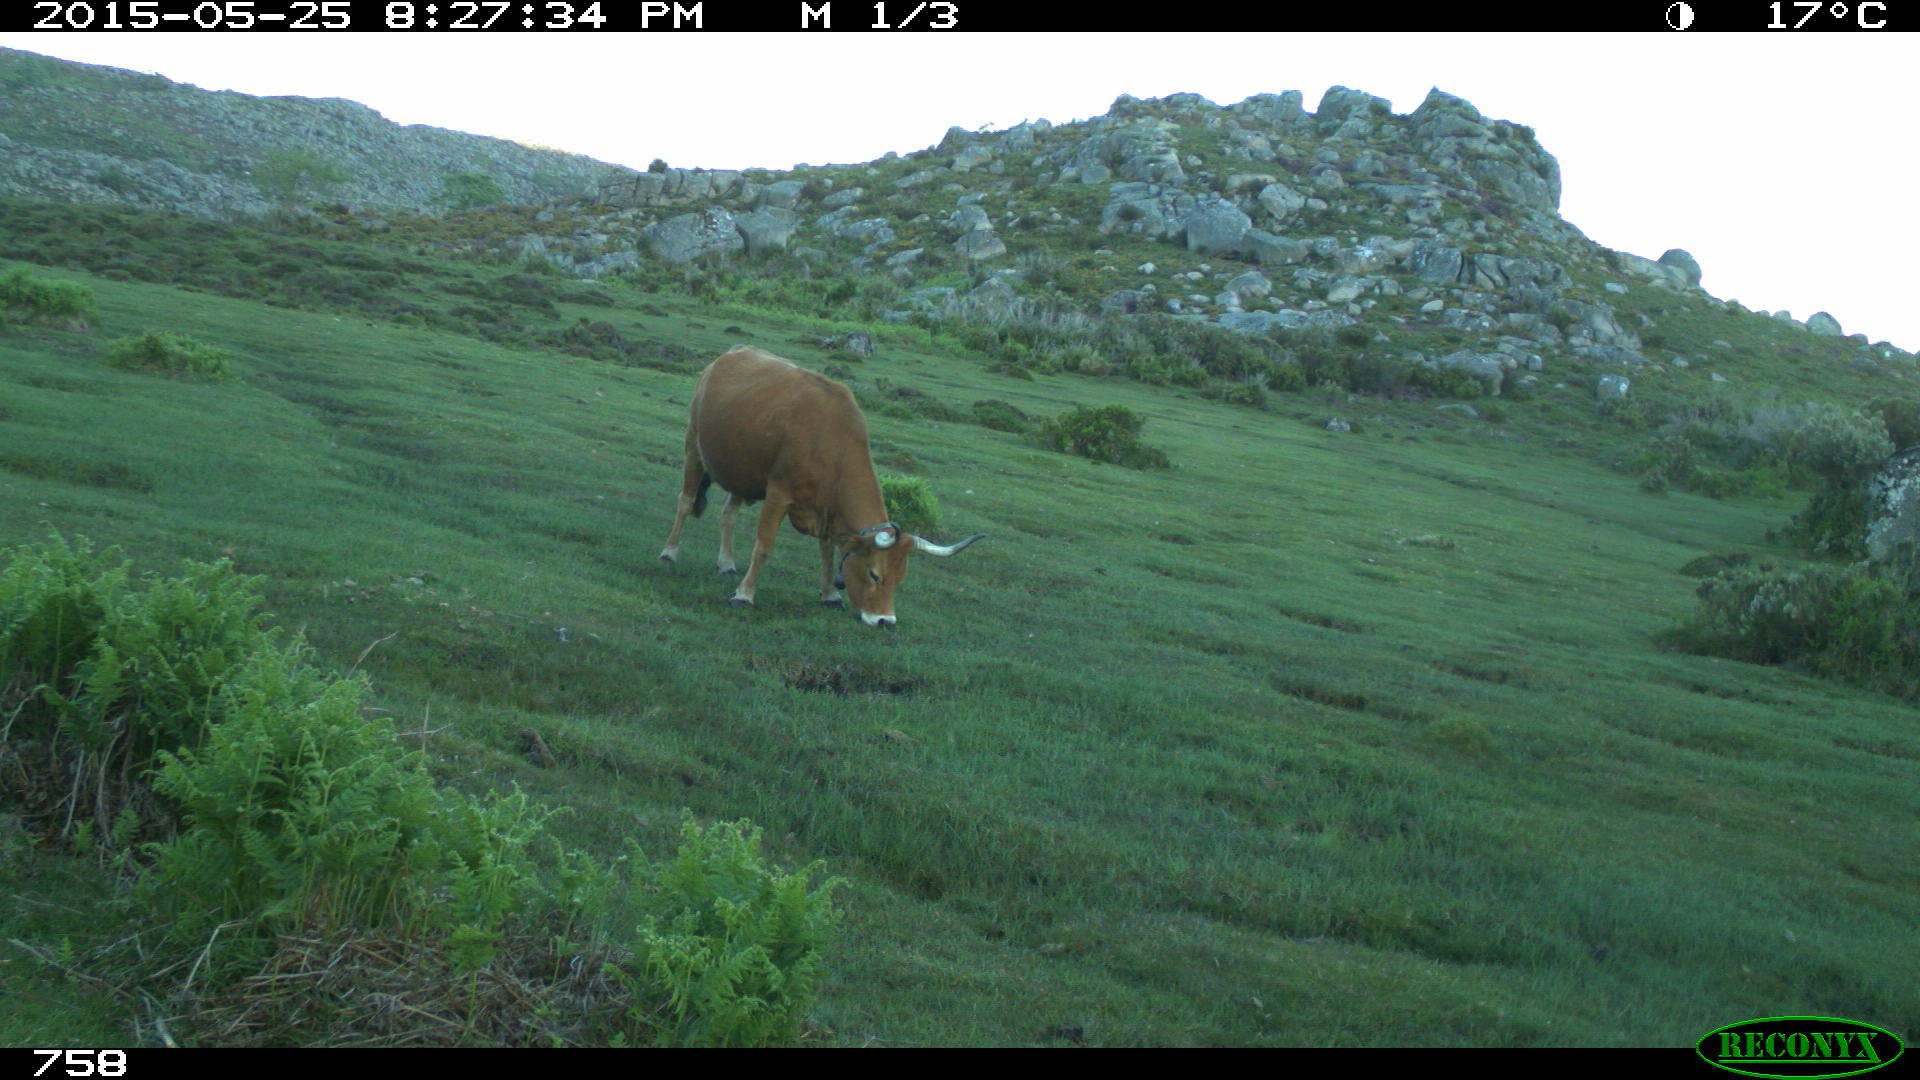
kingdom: Animalia
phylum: Chordata
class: Mammalia
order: Artiodactyla
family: Bovidae
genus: Bos
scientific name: Bos taurus
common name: Domesticated cattle
